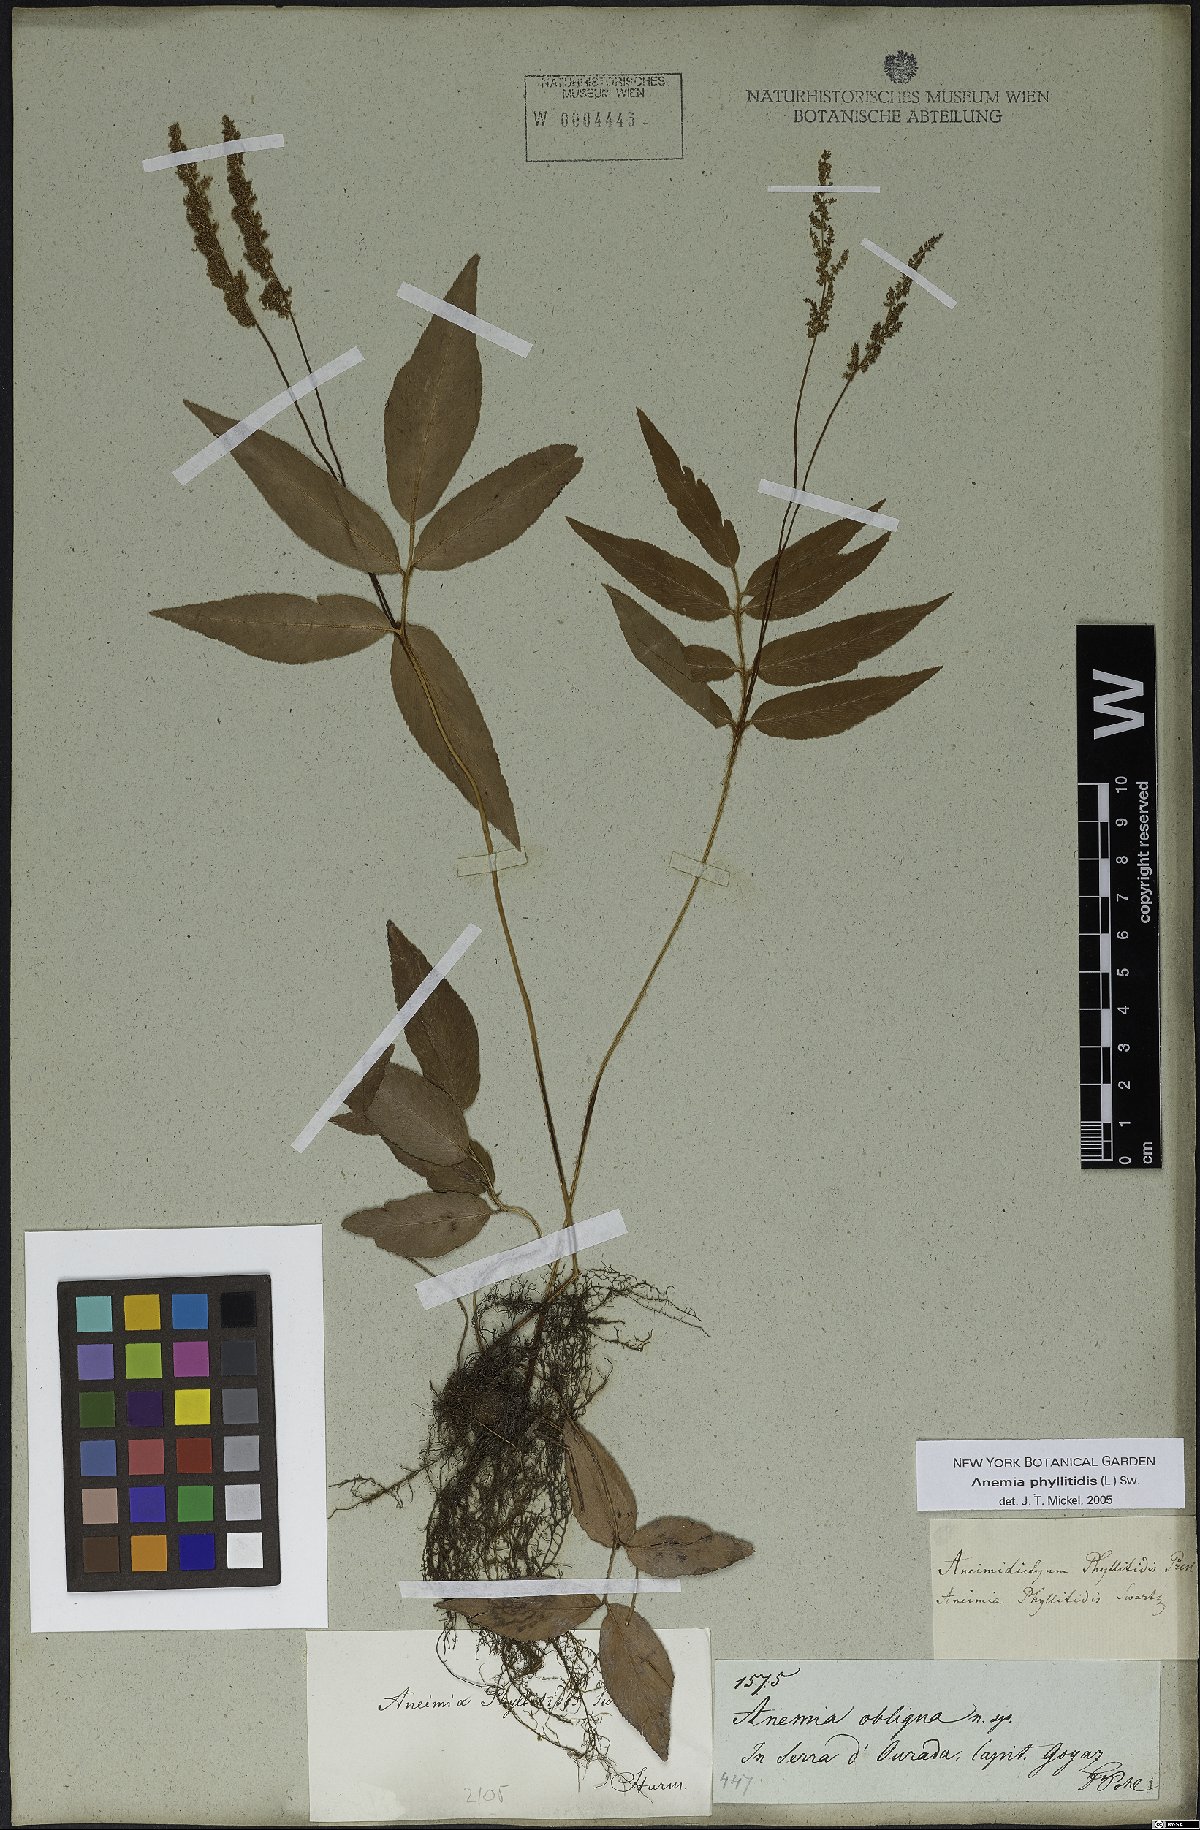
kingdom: Plantae
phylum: Tracheophyta
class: Polypodiopsida
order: Schizaeales
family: Anemiaceae
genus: Anemia
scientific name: Anemia phyllitidis
